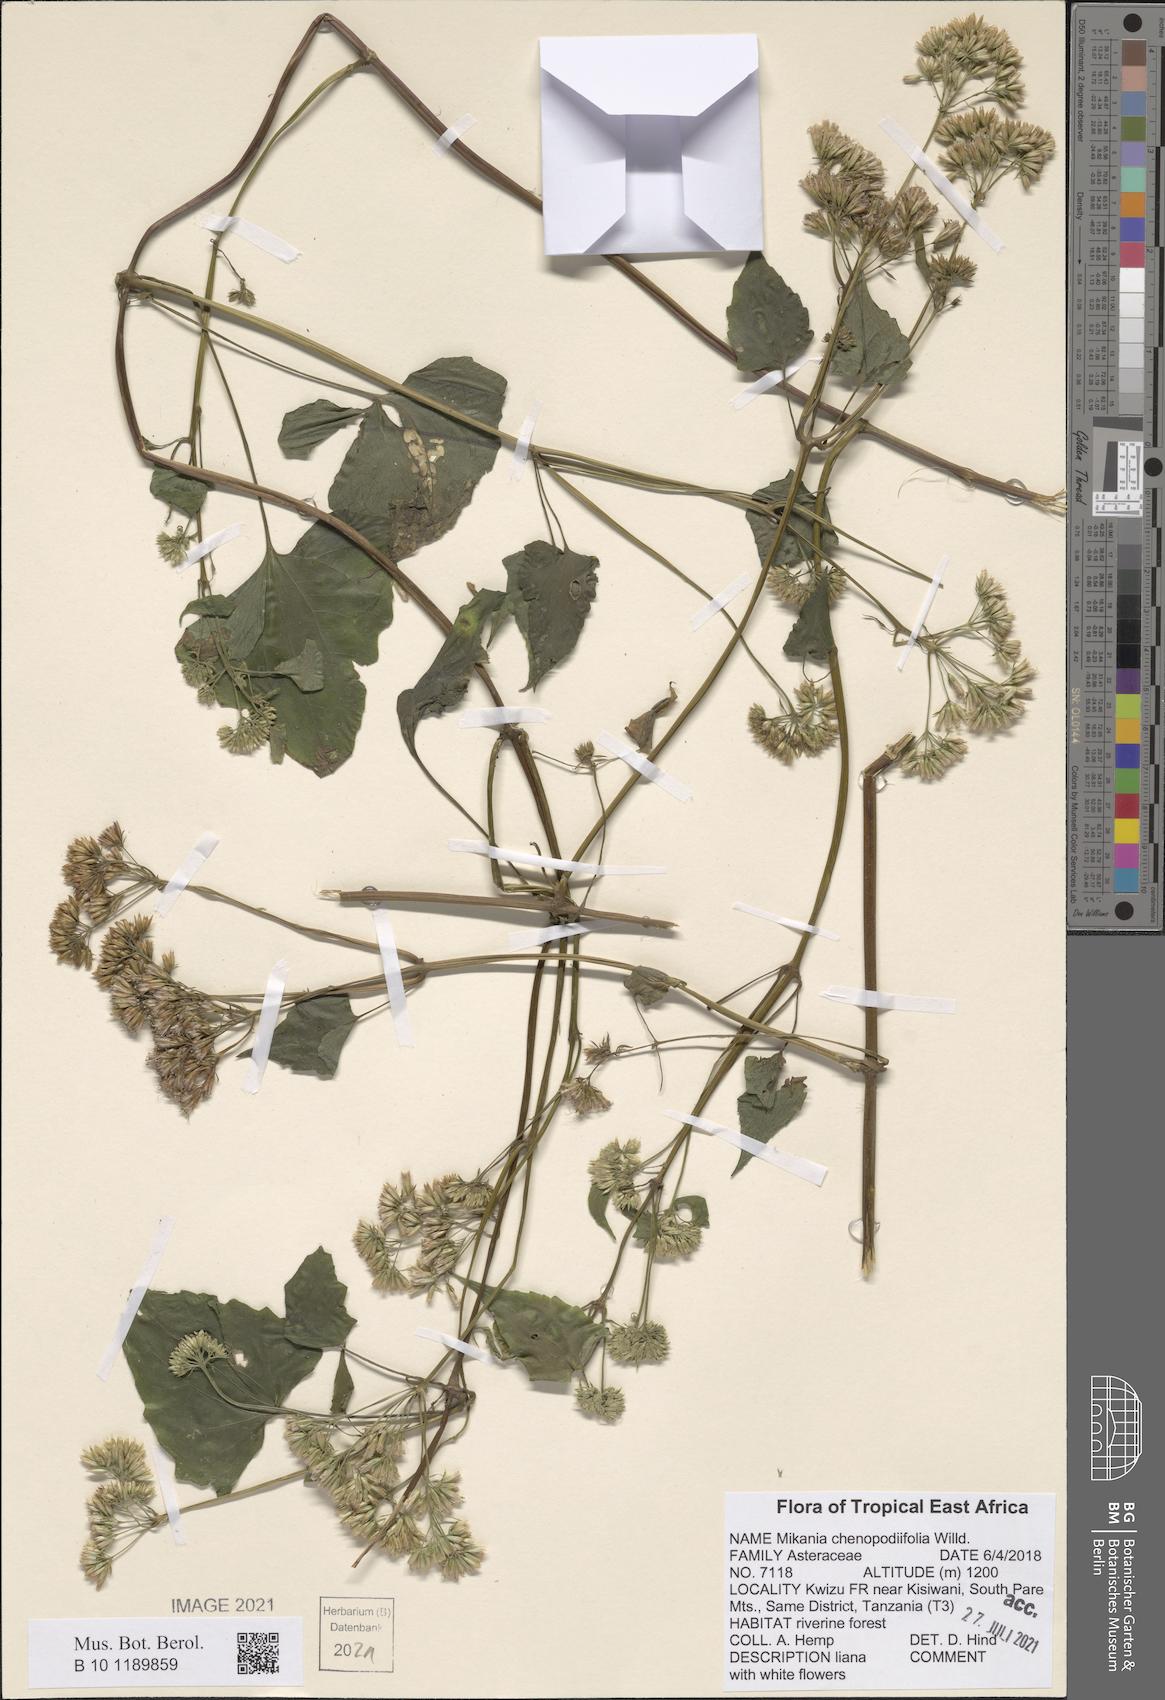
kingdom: Plantae
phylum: Tracheophyta
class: Magnoliopsida
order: Asterales
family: Asteraceae
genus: Mikania
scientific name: Mikania chenopodifolia
